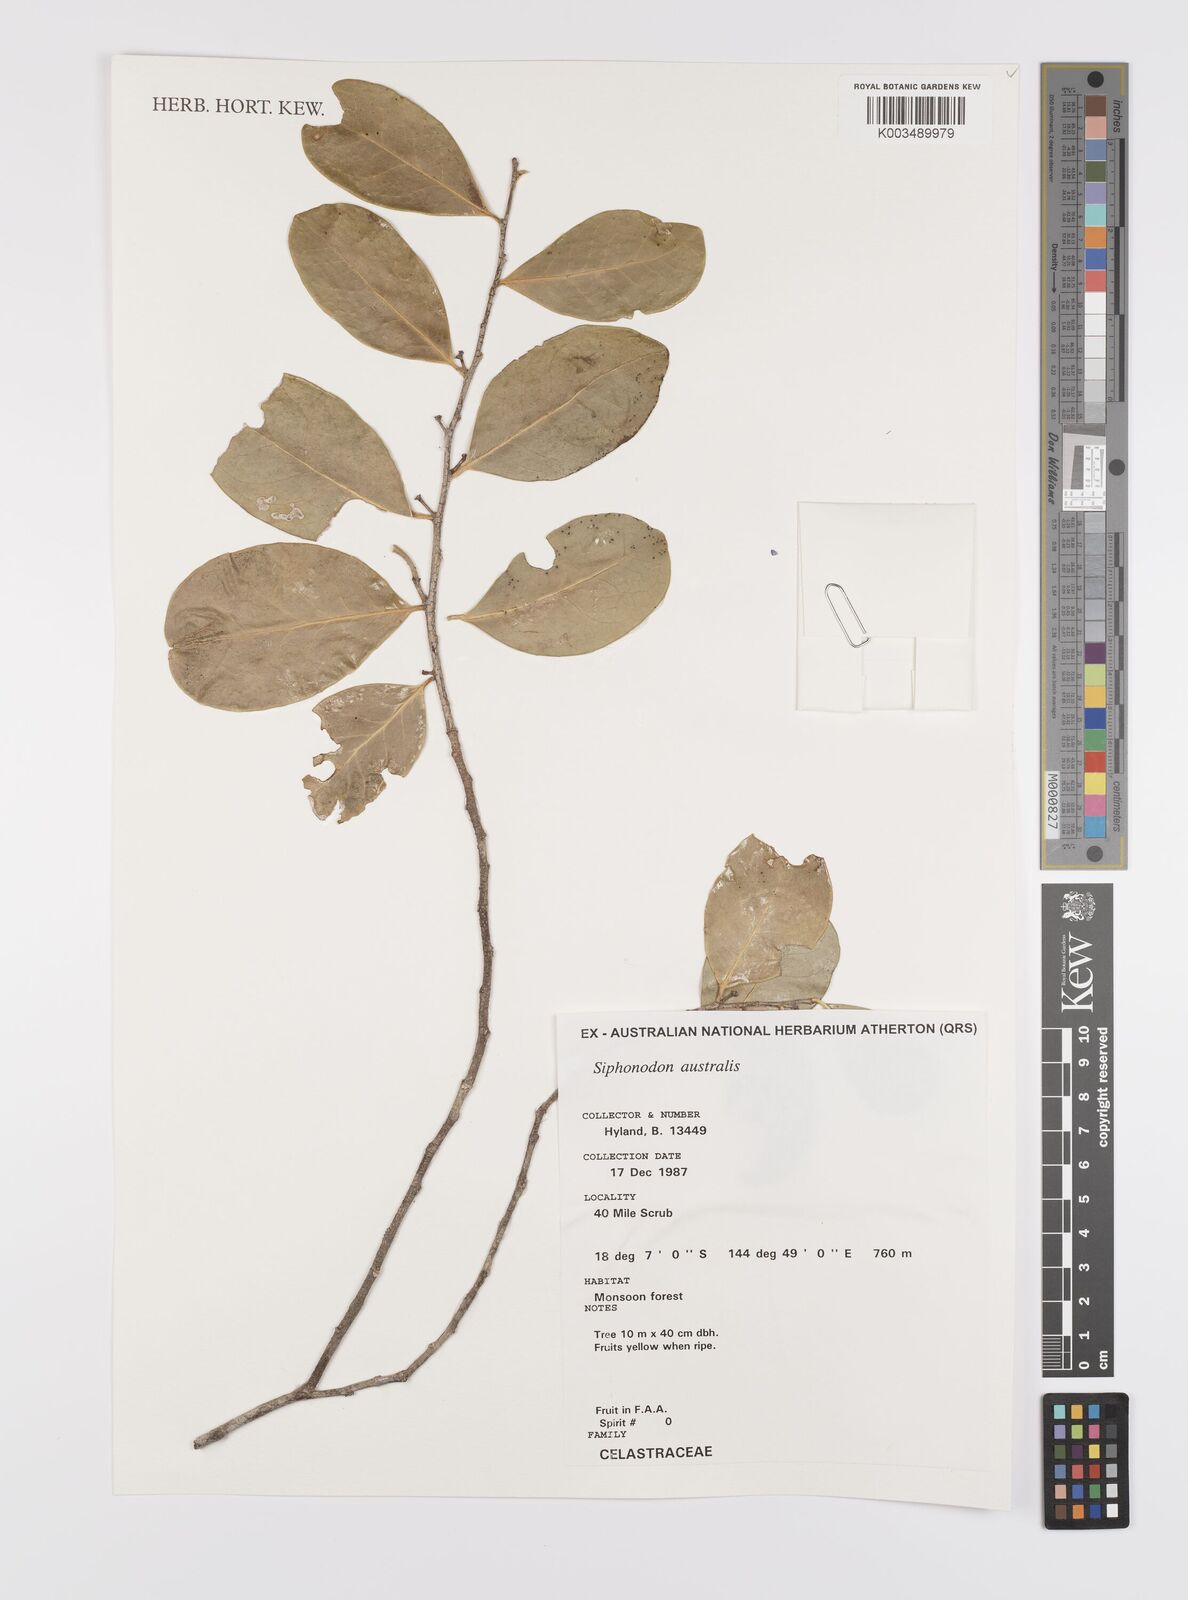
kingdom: Plantae
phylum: Tracheophyta
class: Magnoliopsida
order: Celastrales
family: Celastraceae
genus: Siphonodon
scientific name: Siphonodon australis
